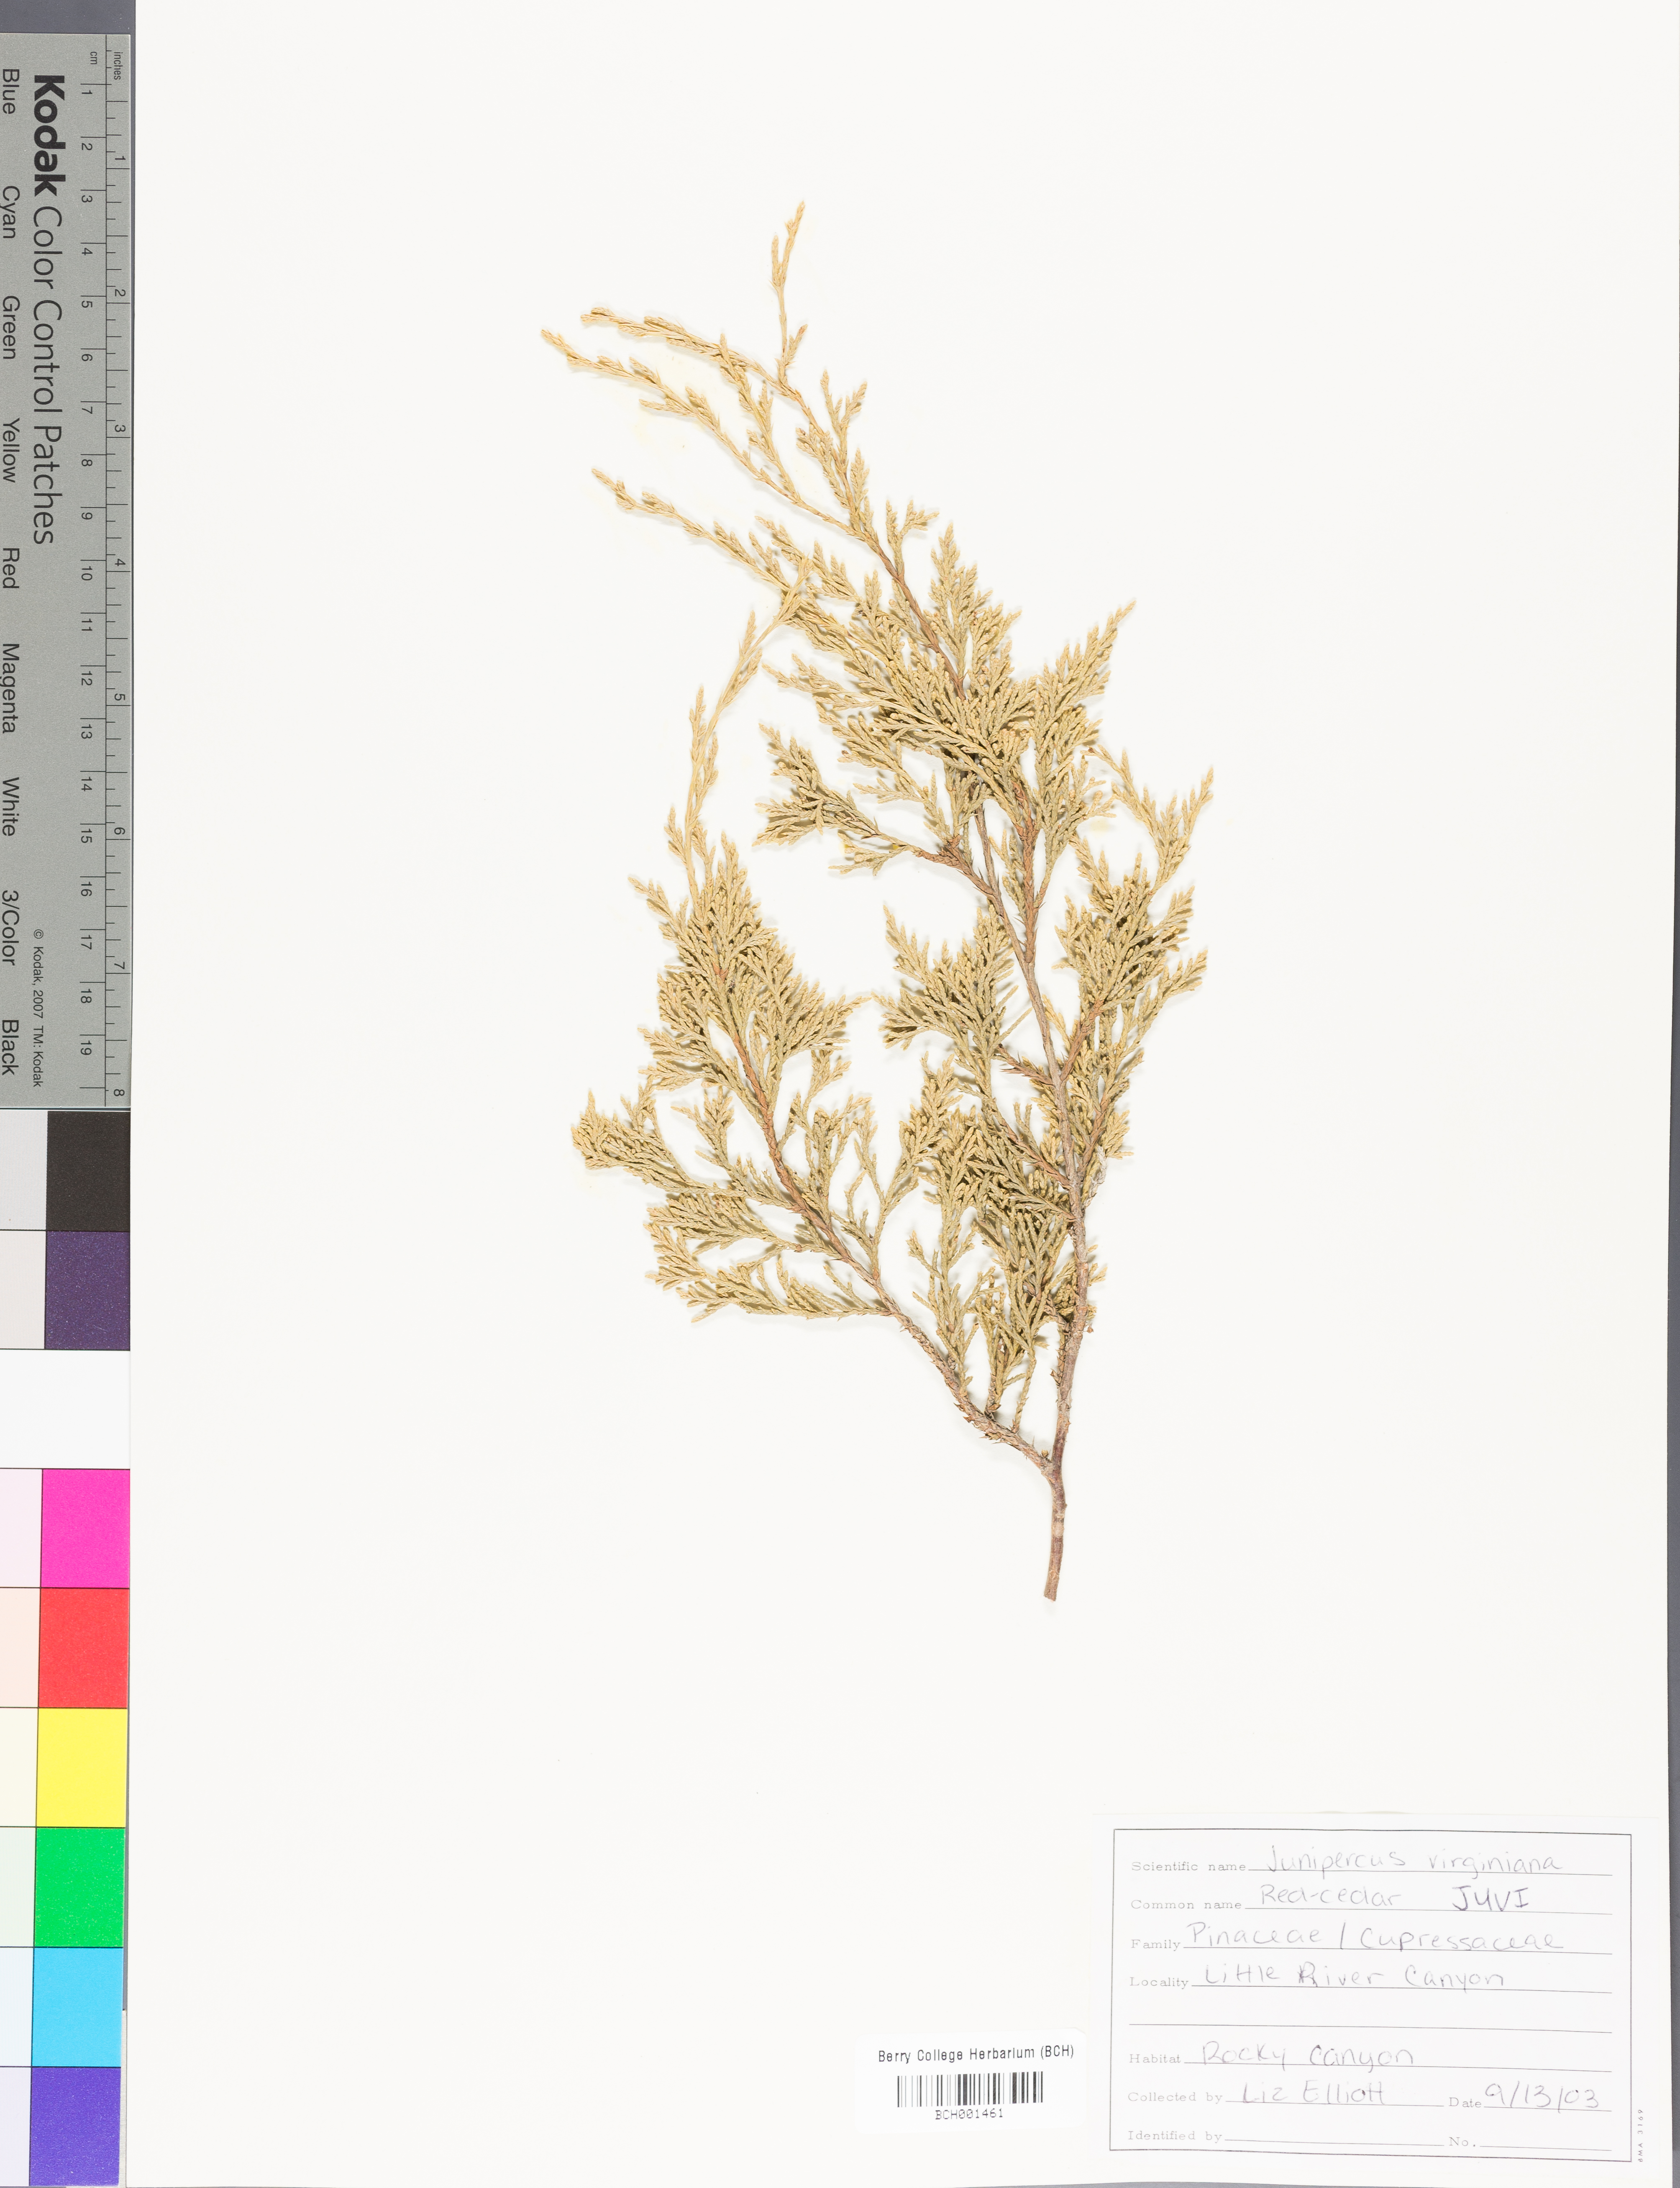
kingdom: Plantae
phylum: Tracheophyta
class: Pinopsida
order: Pinales
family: Cupressaceae
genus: Juniperus
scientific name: Juniperus virginiana
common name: Red juniper
